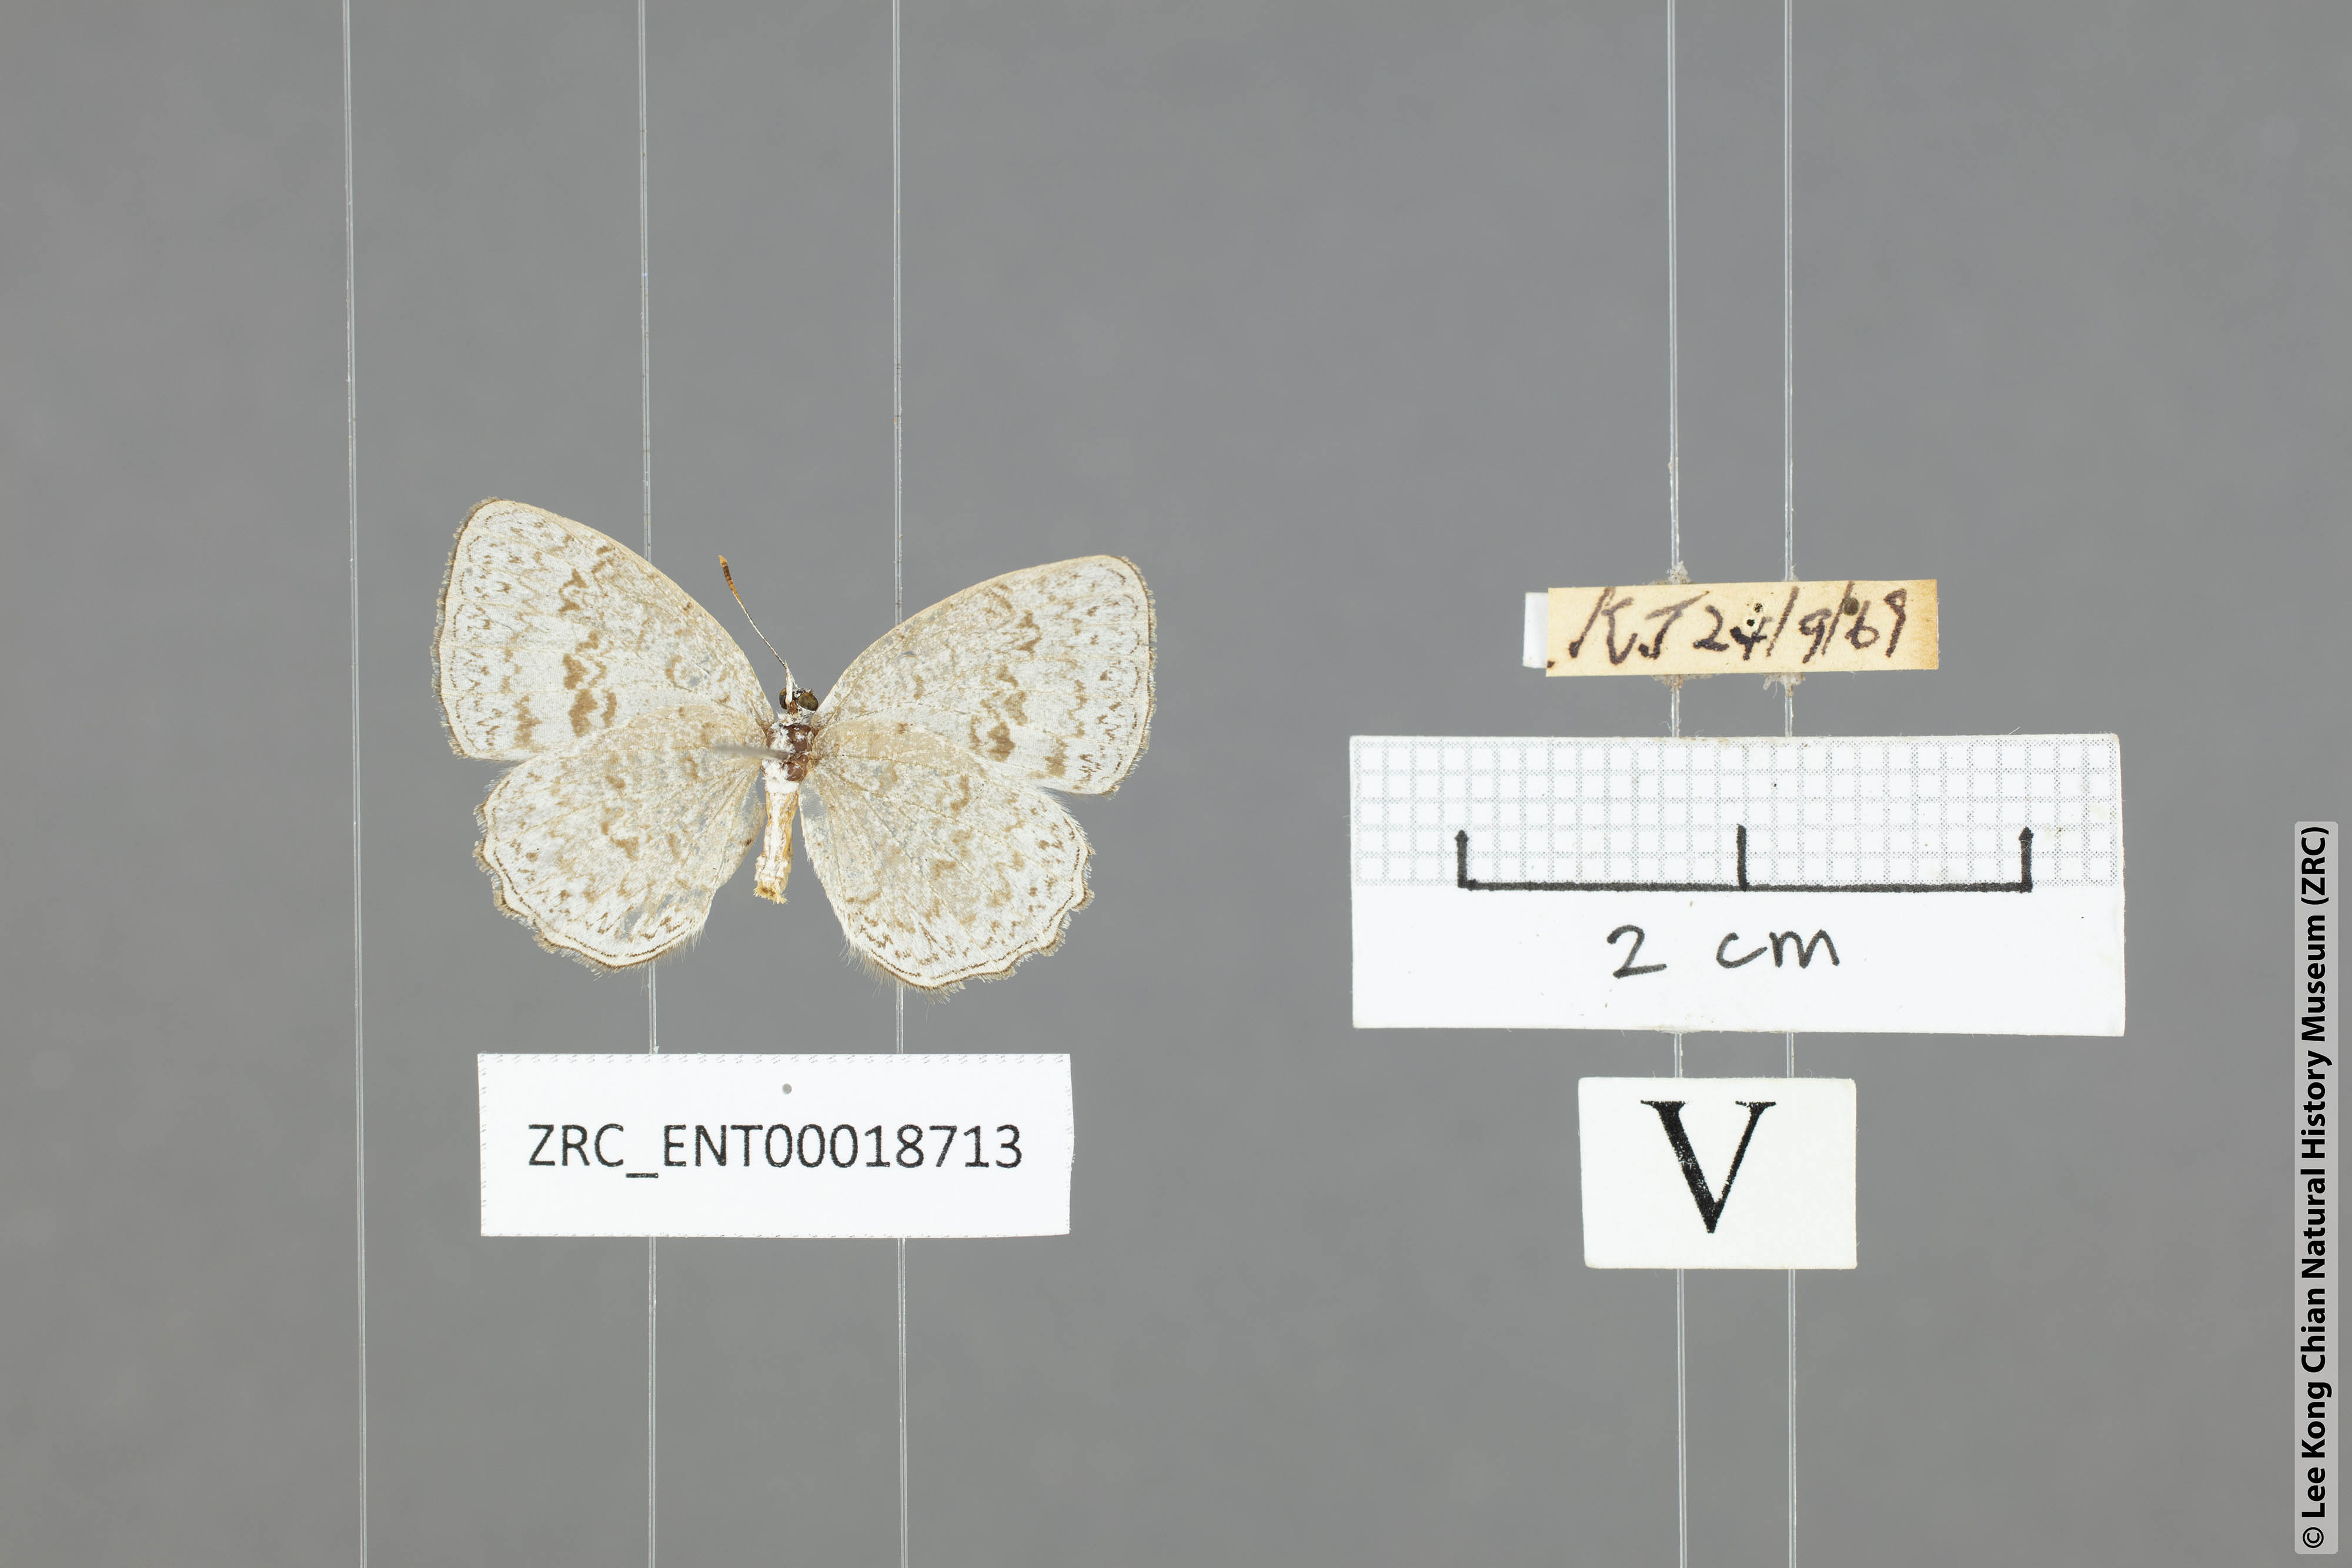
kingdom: Animalia
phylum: Arthropoda
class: Insecta
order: Lepidoptera
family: Lycaenidae
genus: Cyaniriodes
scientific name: Cyaniriodes libna
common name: Emerald
